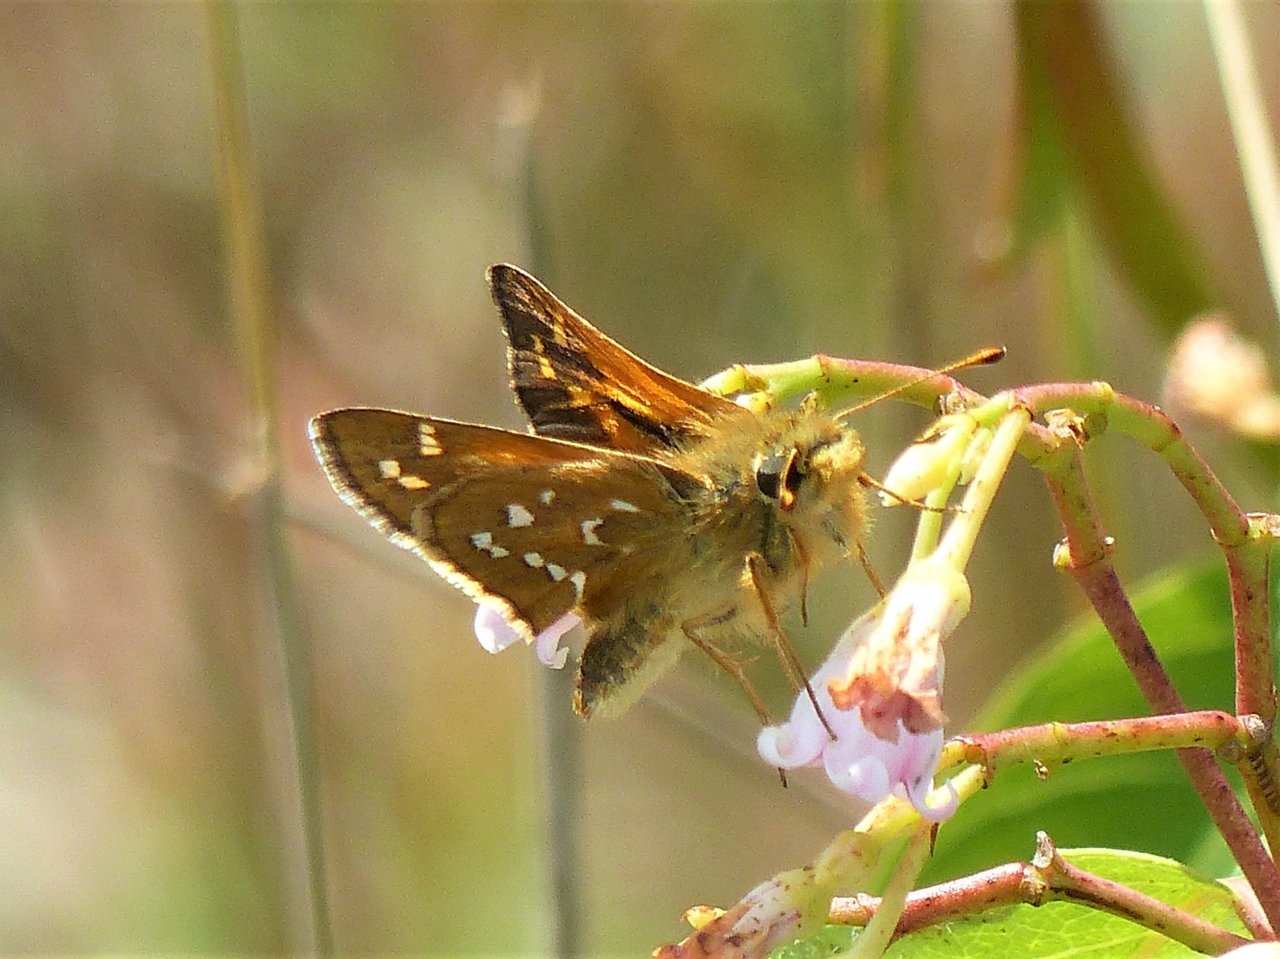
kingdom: Animalia
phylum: Arthropoda
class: Insecta
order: Lepidoptera
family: Hesperiidae
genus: Hesperia
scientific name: Hesperia comma
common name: Common Branded Skipper
